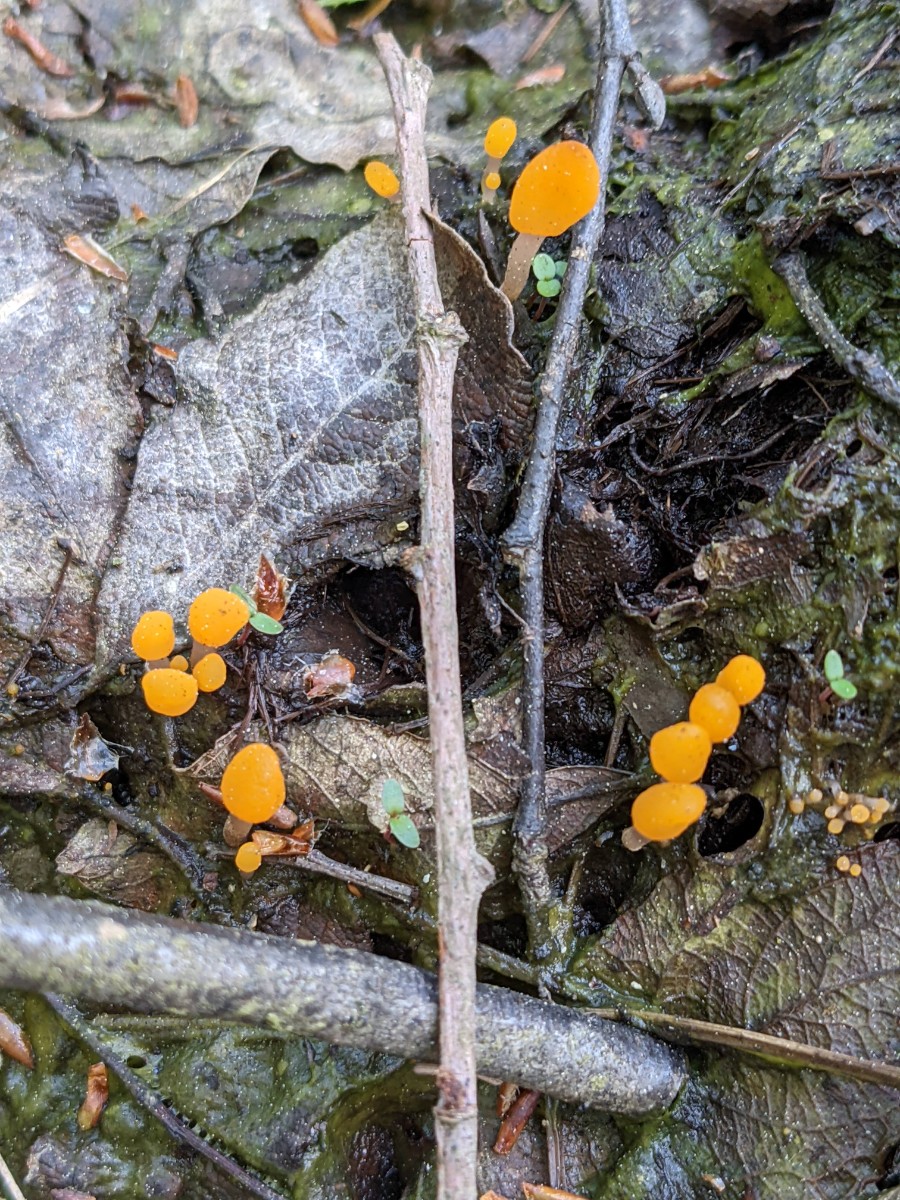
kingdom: Fungi
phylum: Ascomycota
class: Leotiomycetes
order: Helotiales
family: Cenangiaceae
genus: Mitrula
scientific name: Mitrula paludosa
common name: gul nøkketunge
